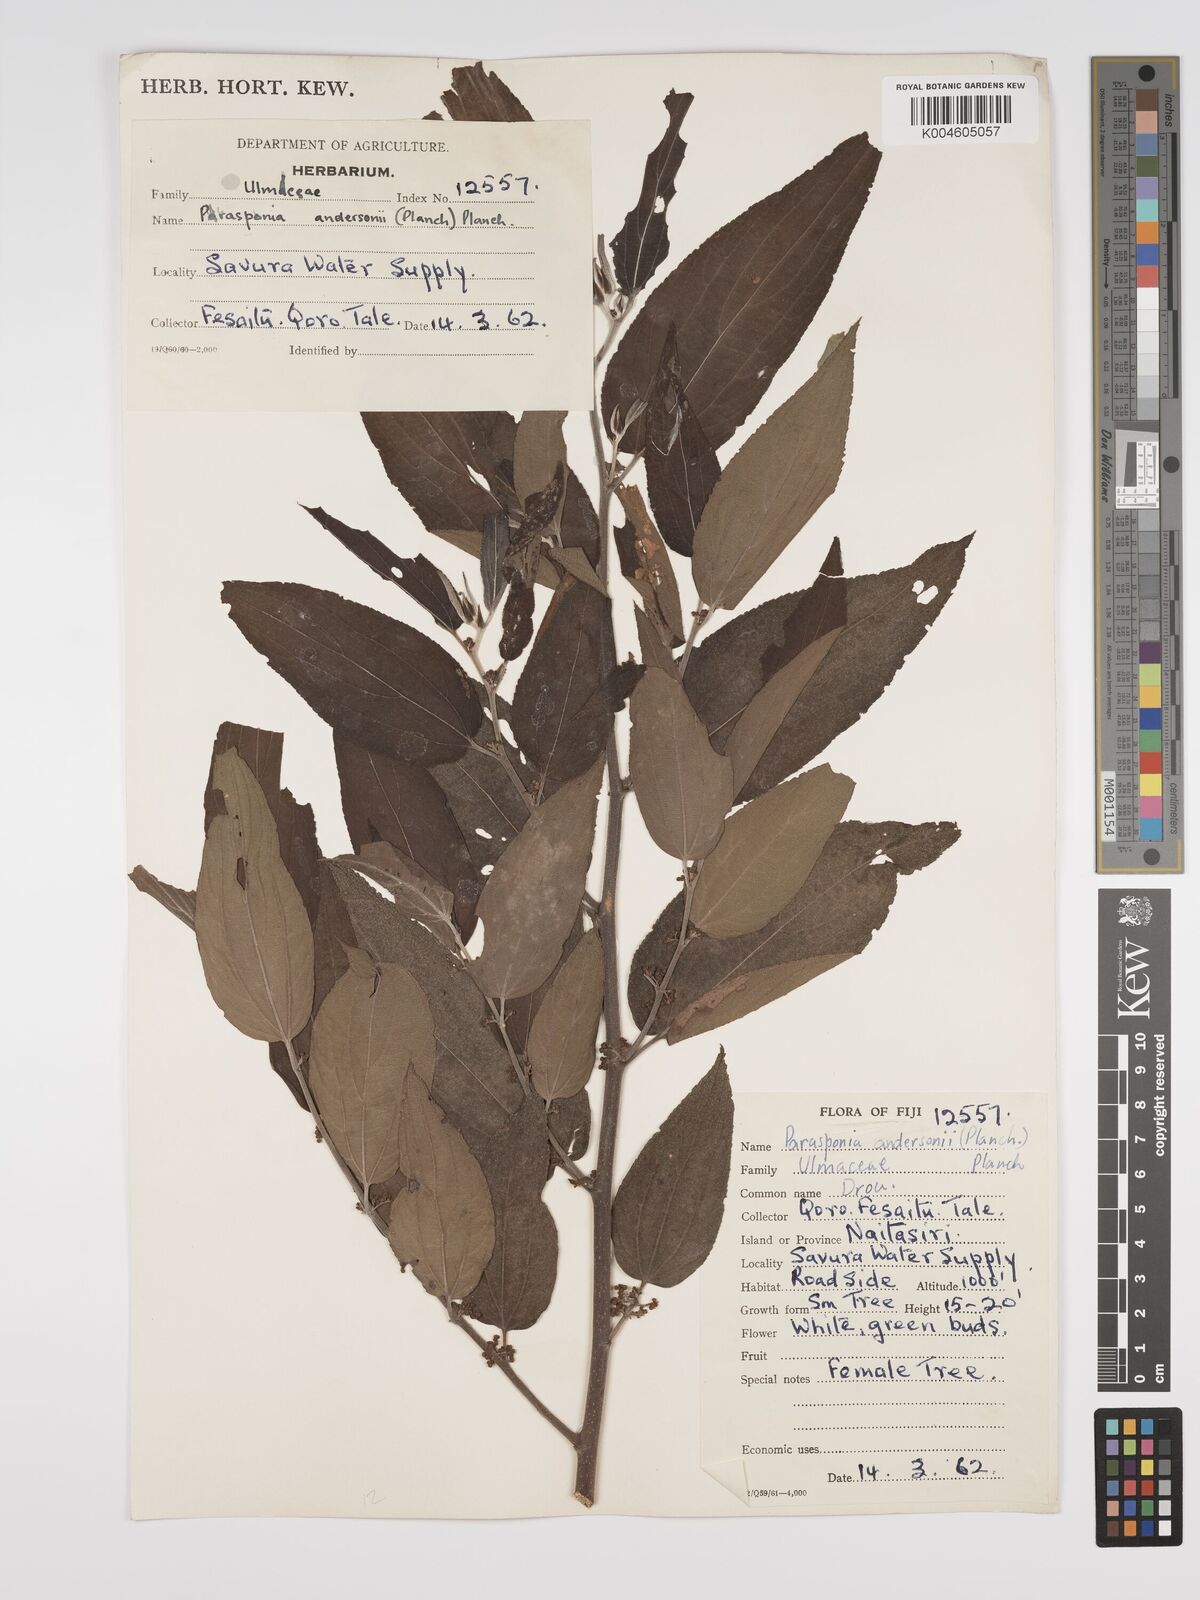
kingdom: Plantae
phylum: Tracheophyta
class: Magnoliopsida
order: Rosales
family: Cannabaceae
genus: Trema
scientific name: Trema andersonii
